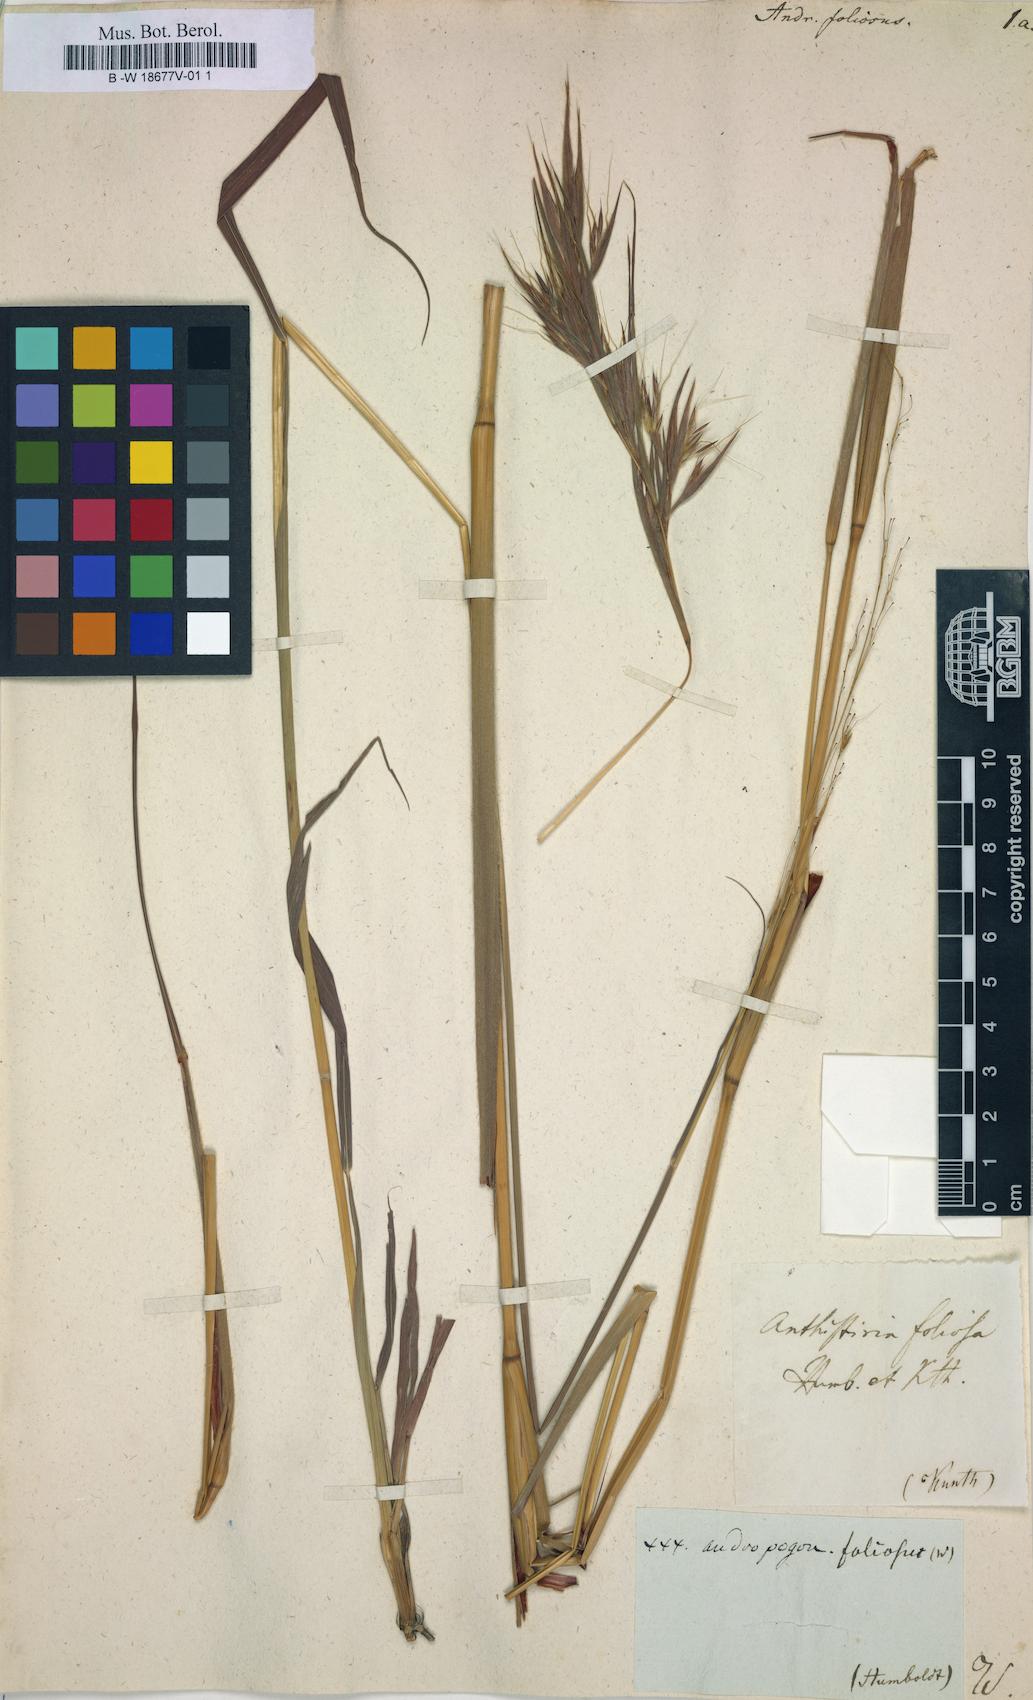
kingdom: Plantae
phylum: Tracheophyta
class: Liliopsida
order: Poales
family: Poaceae
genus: Cymbopogon
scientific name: Cymbopogon caesius
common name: Kachi grass
